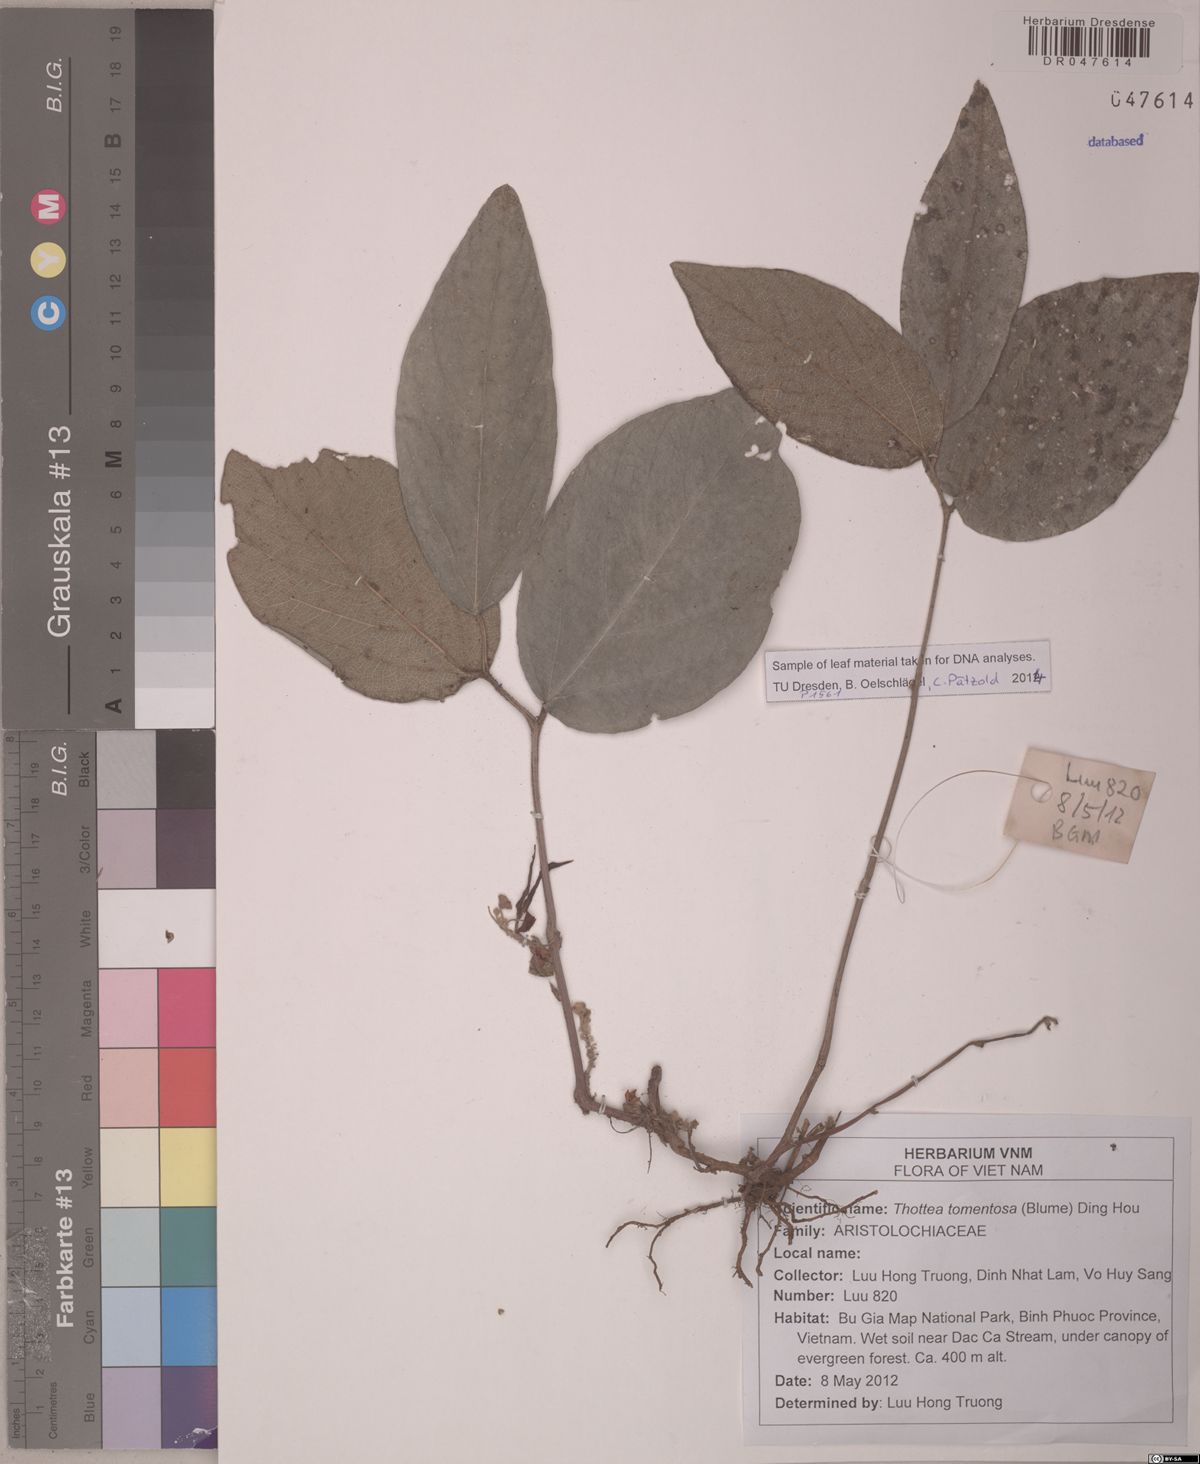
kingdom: Plantae
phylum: Tracheophyta
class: Magnoliopsida
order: Piperales
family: Aristolochiaceae
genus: Thottea
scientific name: Thottea tomentosa
